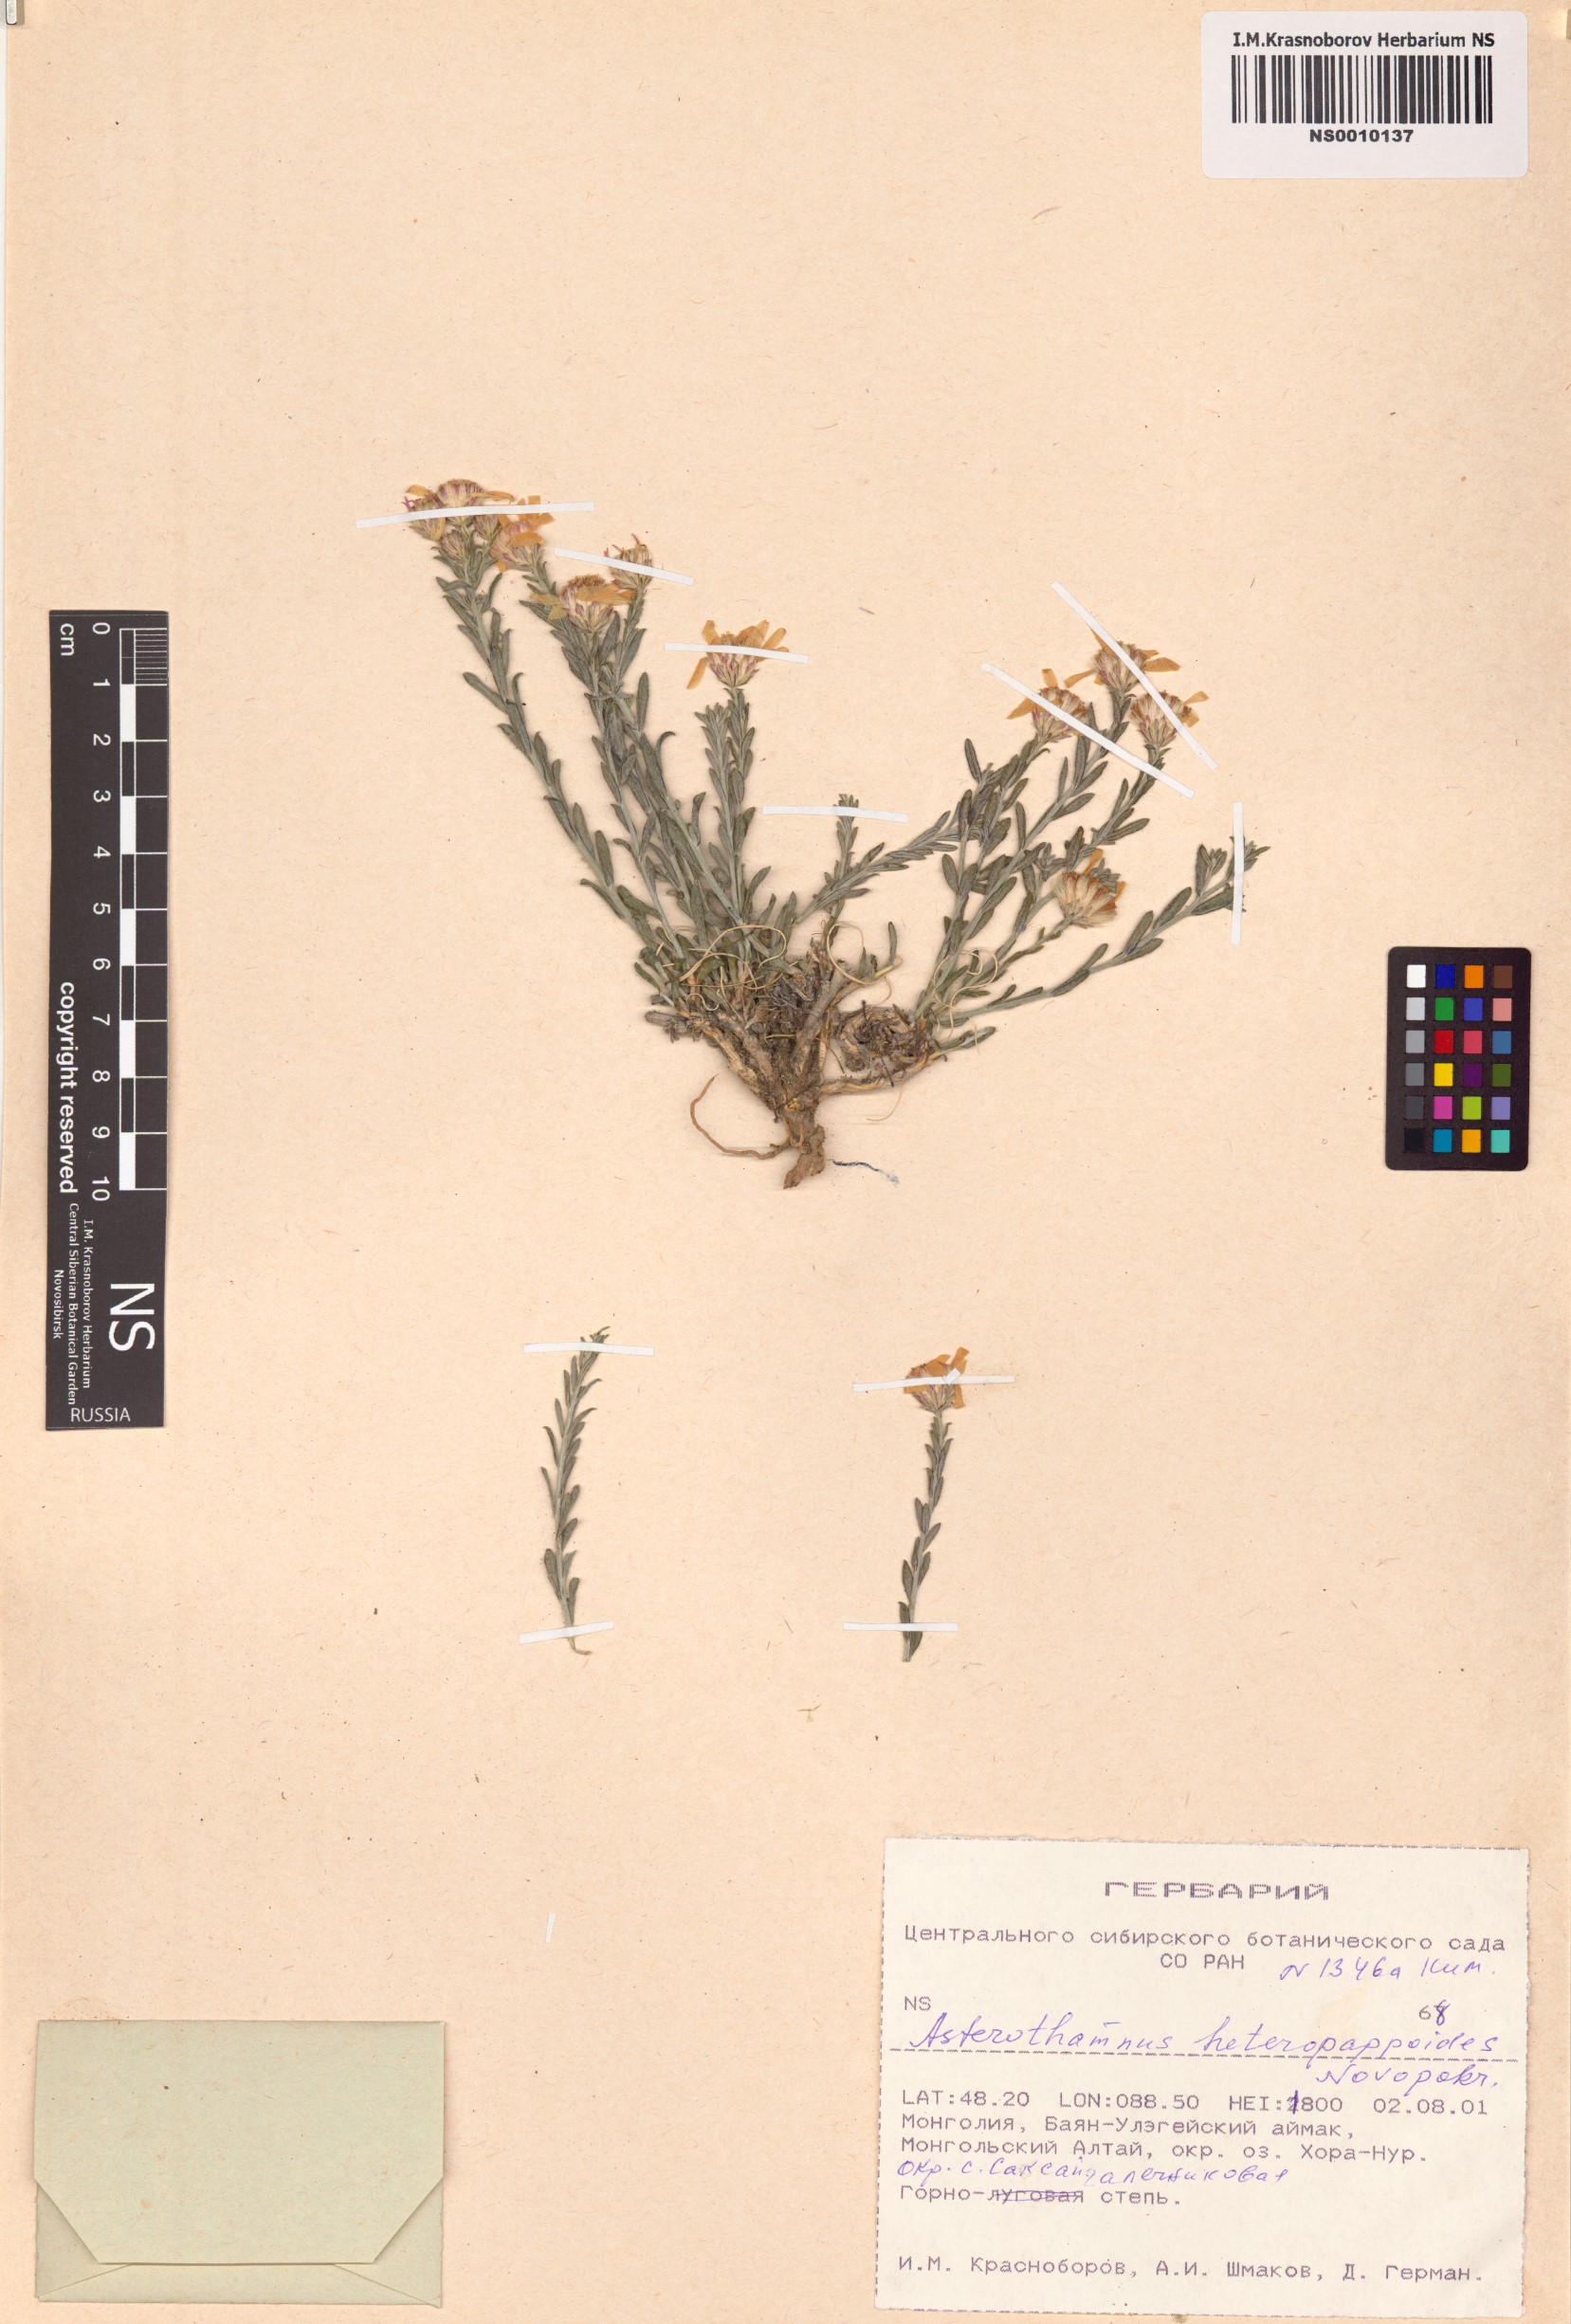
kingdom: Plantae
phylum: Tracheophyta
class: Magnoliopsida
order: Asterales
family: Asteraceae
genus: Asterothamnus
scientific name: Asterothamnus heteropappoides
